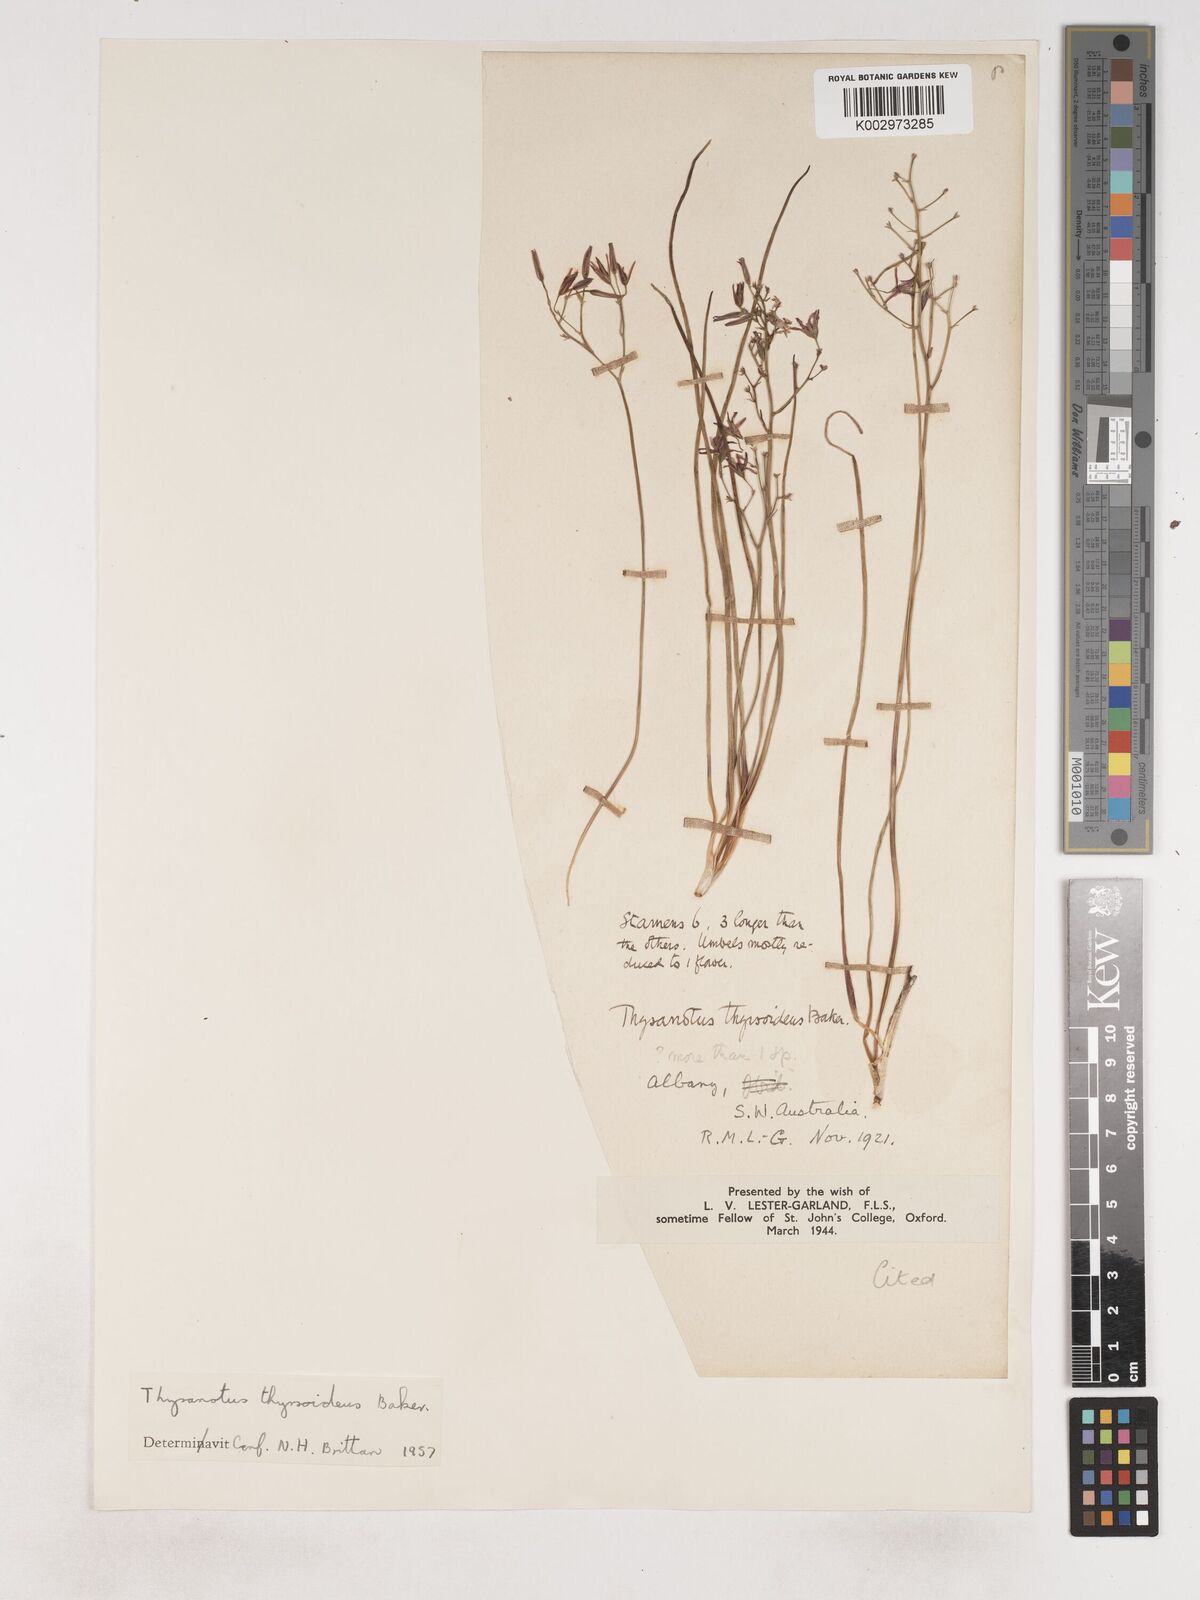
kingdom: Plantae
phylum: Tracheophyta
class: Liliopsida
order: Asparagales
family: Asparagaceae
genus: Thysanotus
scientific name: Thysanotus thyrsoideus
